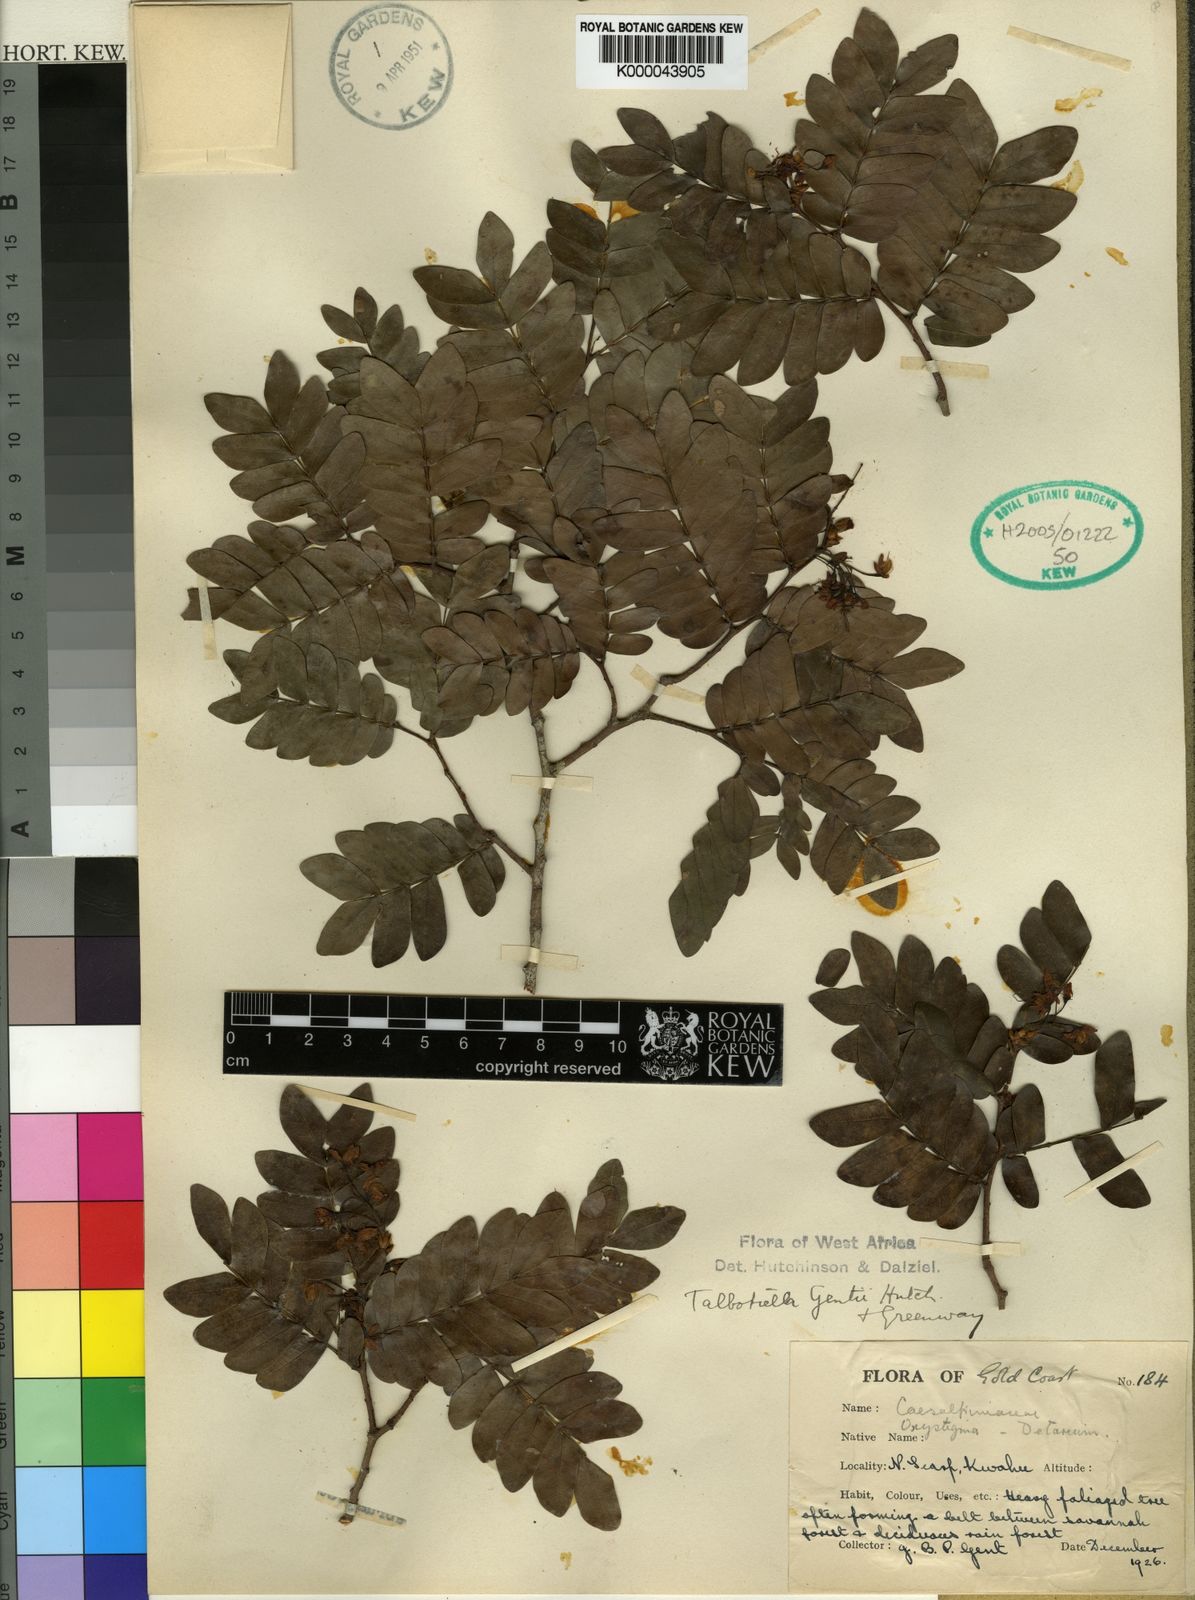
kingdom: Plantae
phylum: Tracheophyta
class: Magnoliopsida
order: Fabales
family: Fabaceae
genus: Talbotiella
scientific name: Talbotiella gentii
